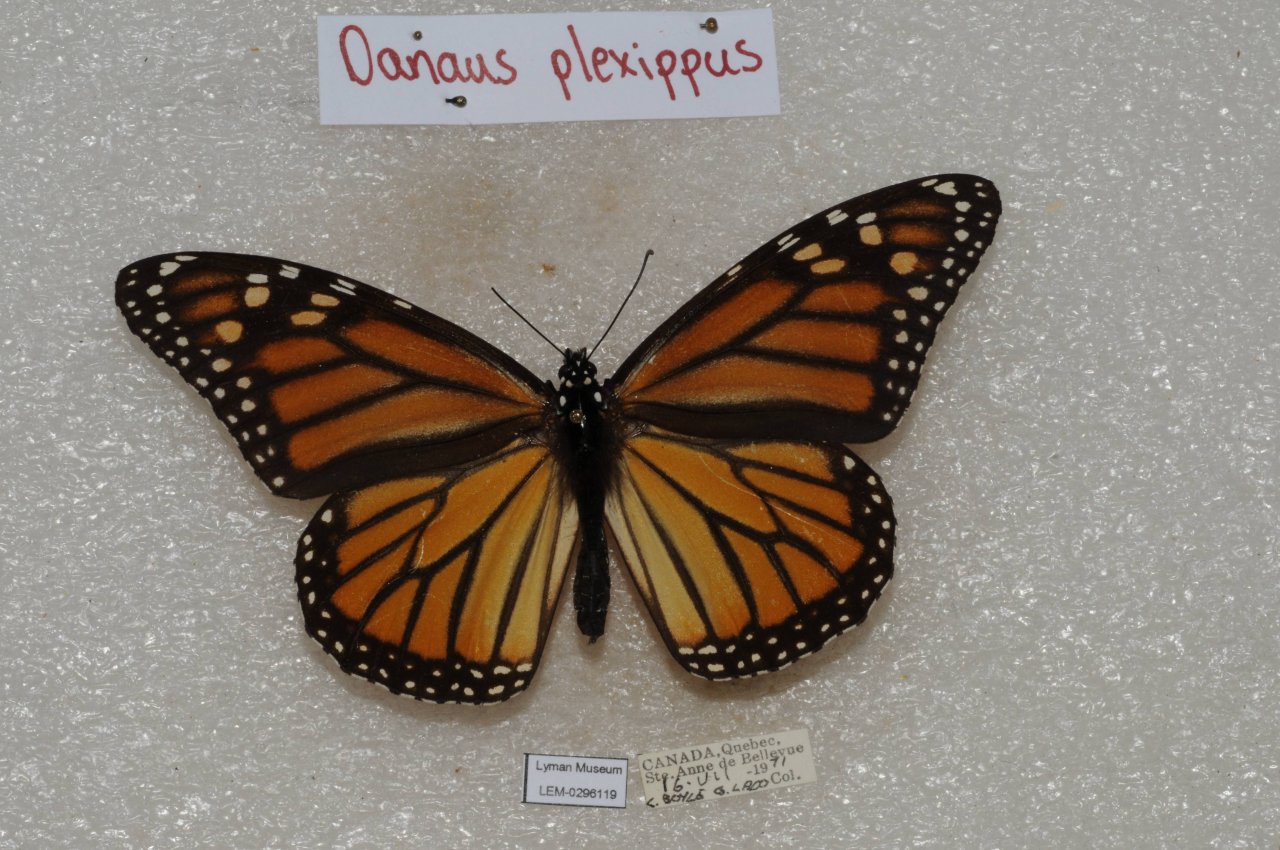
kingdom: Animalia
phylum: Arthropoda
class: Insecta
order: Lepidoptera
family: Nymphalidae
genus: Danaus
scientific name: Danaus plexippus
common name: Monarch
